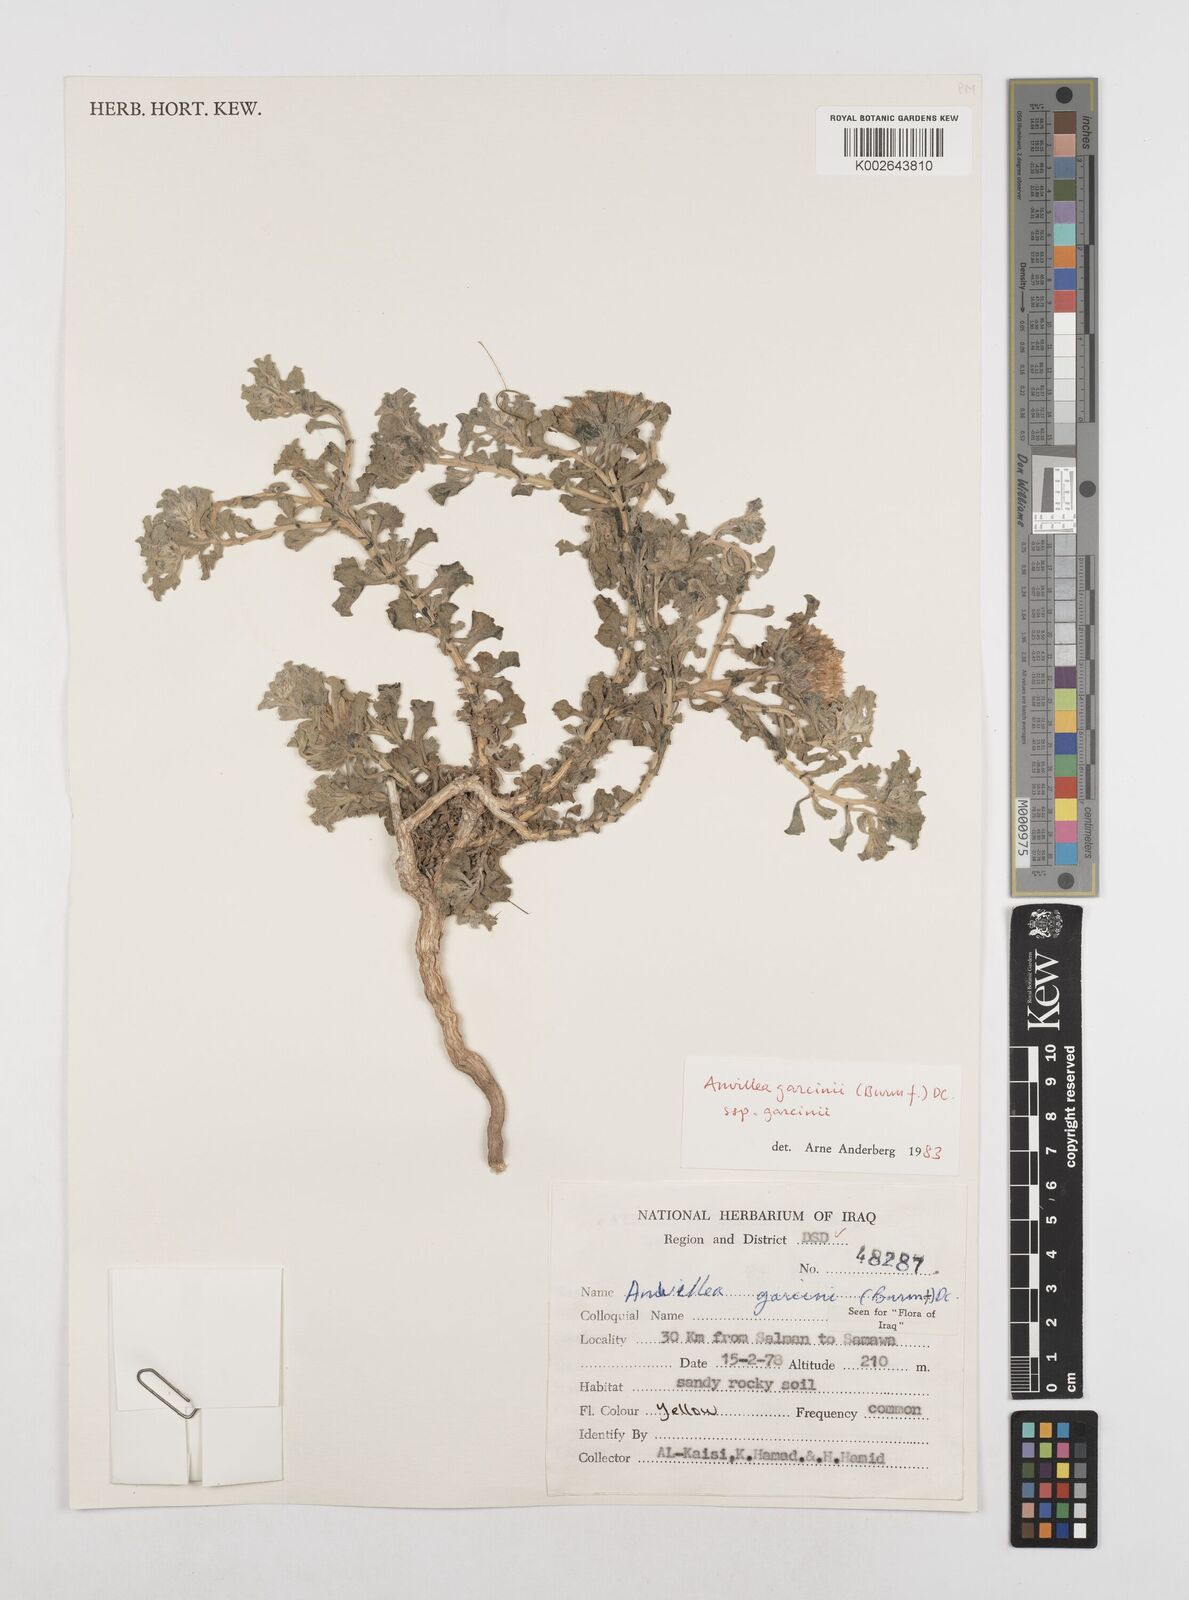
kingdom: Plantae
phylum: Tracheophyta
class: Magnoliopsida
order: Asterales
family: Asteraceae
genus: Anvillea
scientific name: Anvillea garcinii
